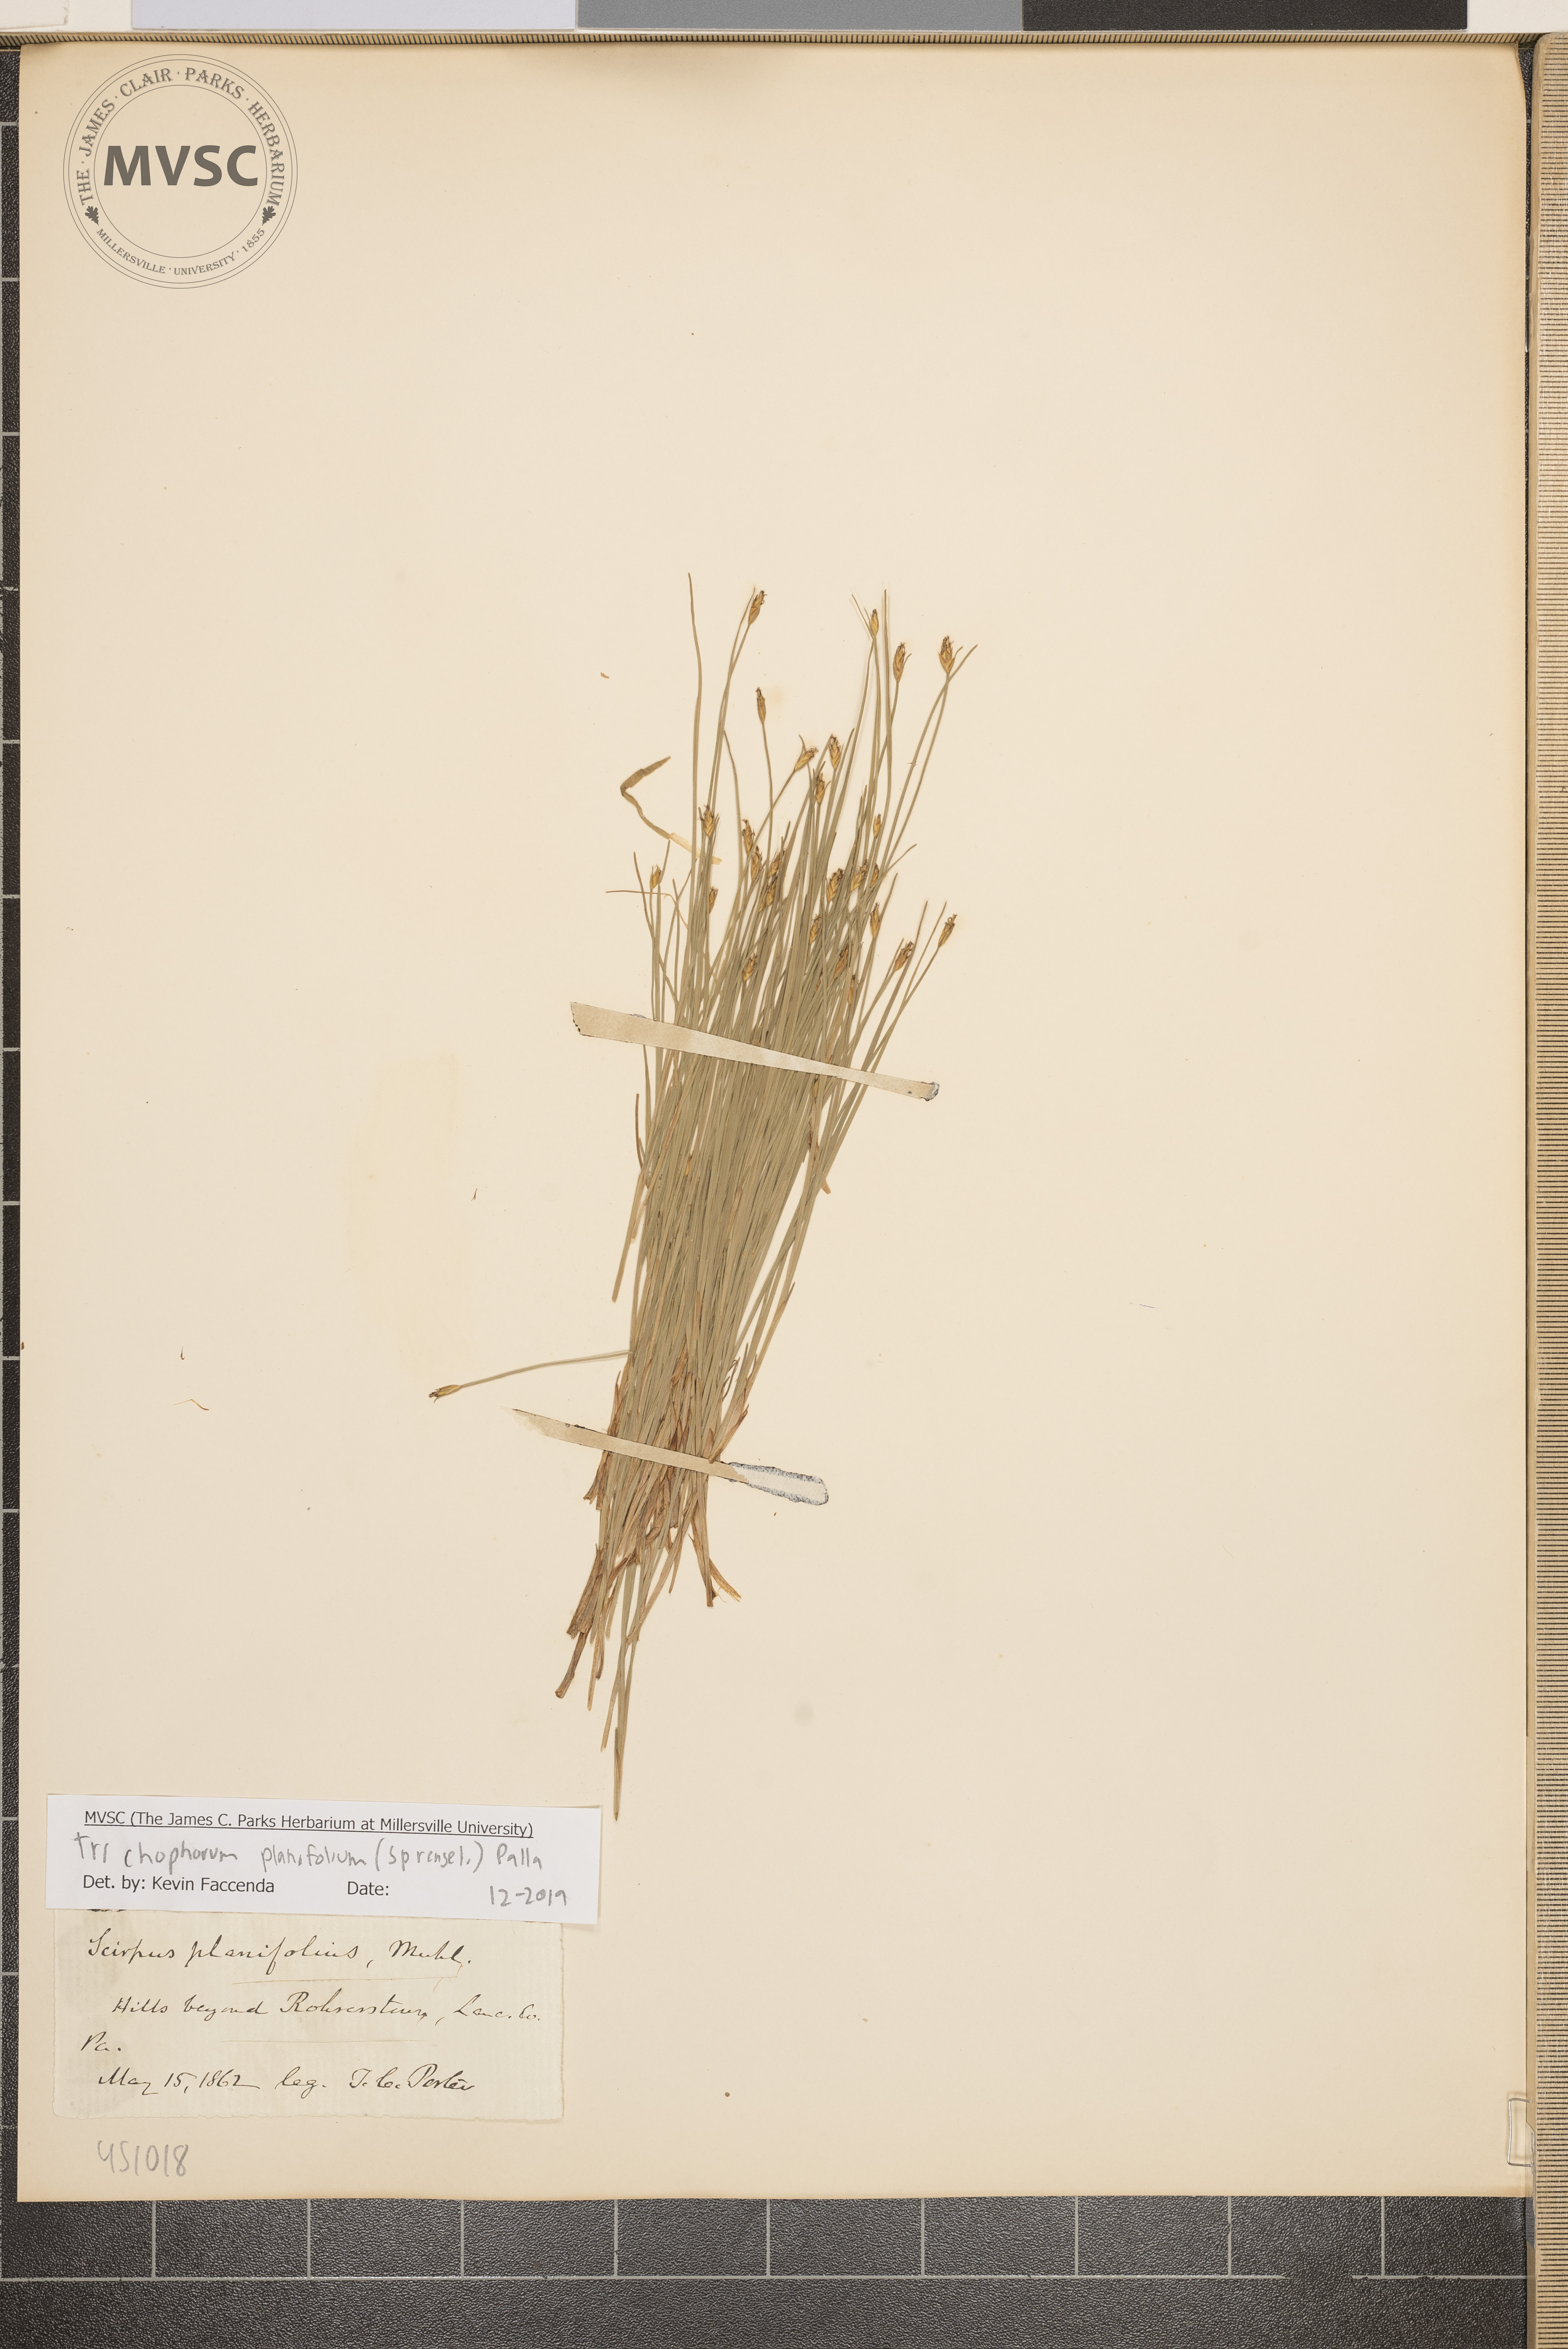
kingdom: Plantae
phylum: Tracheophyta
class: Liliopsida
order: Poales
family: Cyperaceae
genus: Trichophorum
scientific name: Trichophorum planifolium
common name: Bashful bulrush
